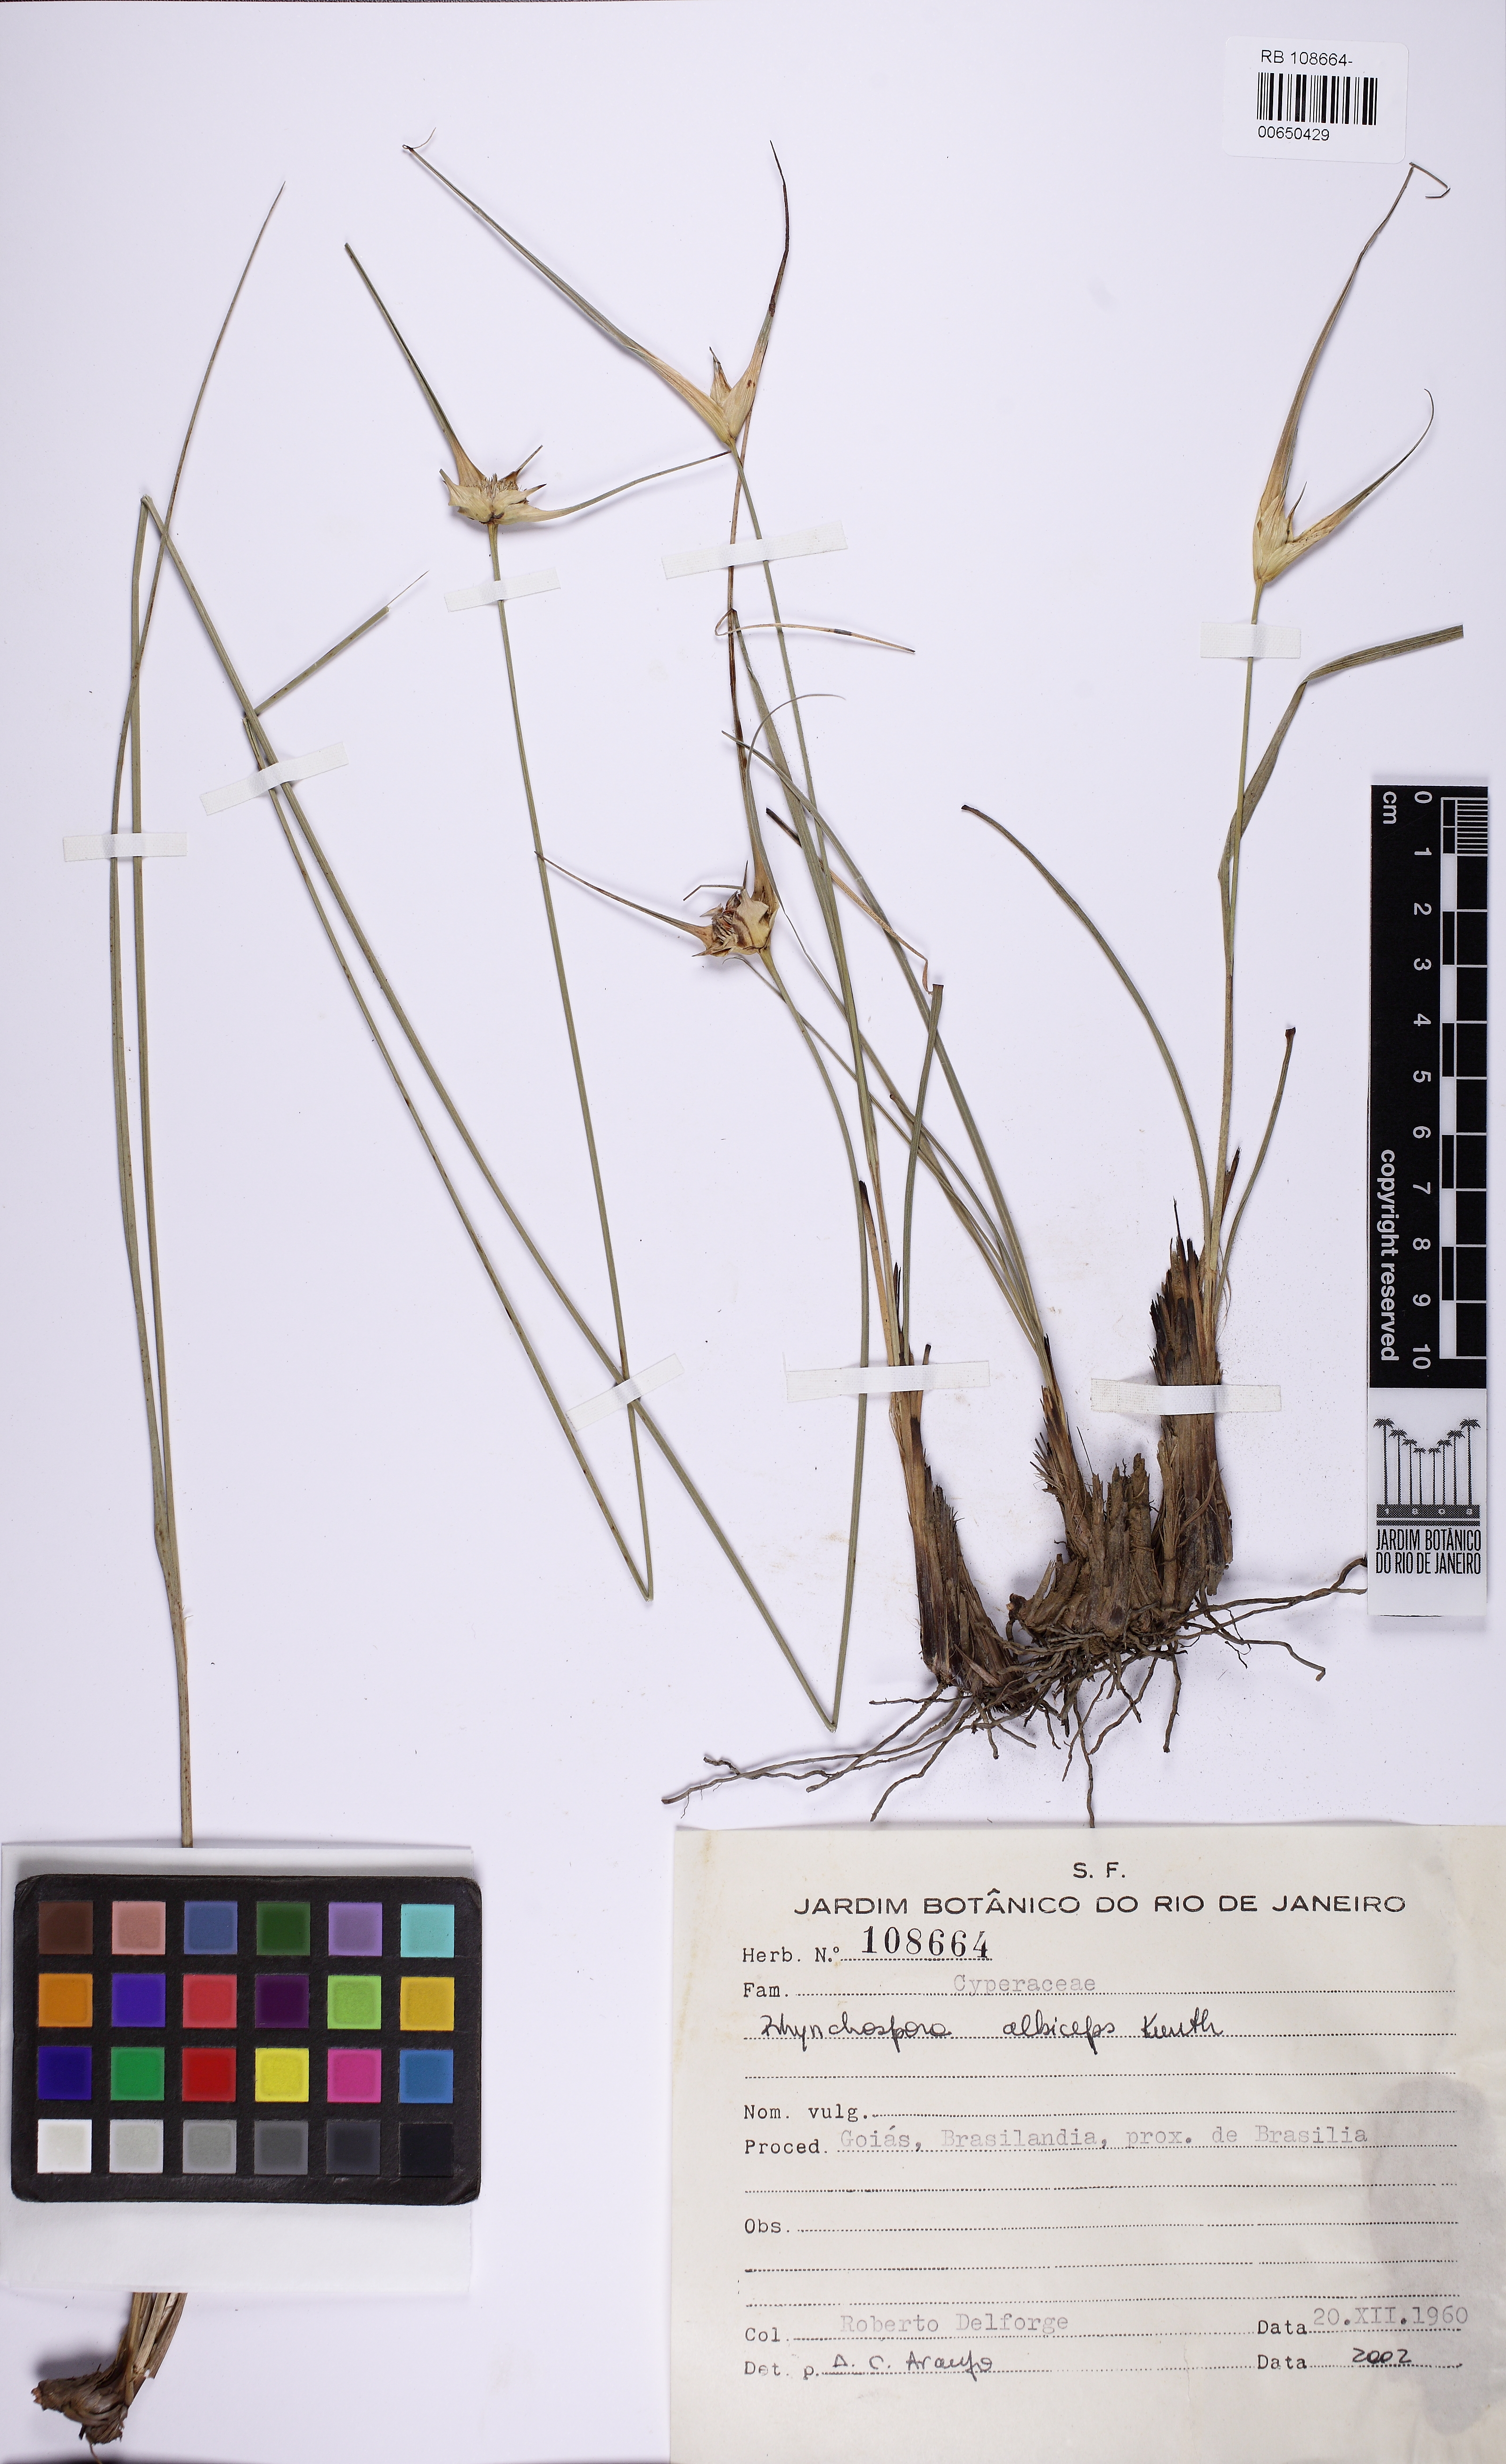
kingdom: Plantae
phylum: Tracheophyta
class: Liliopsida
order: Poales
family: Cyperaceae
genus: Rhynchospora
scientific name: Rhynchospora rupestris
